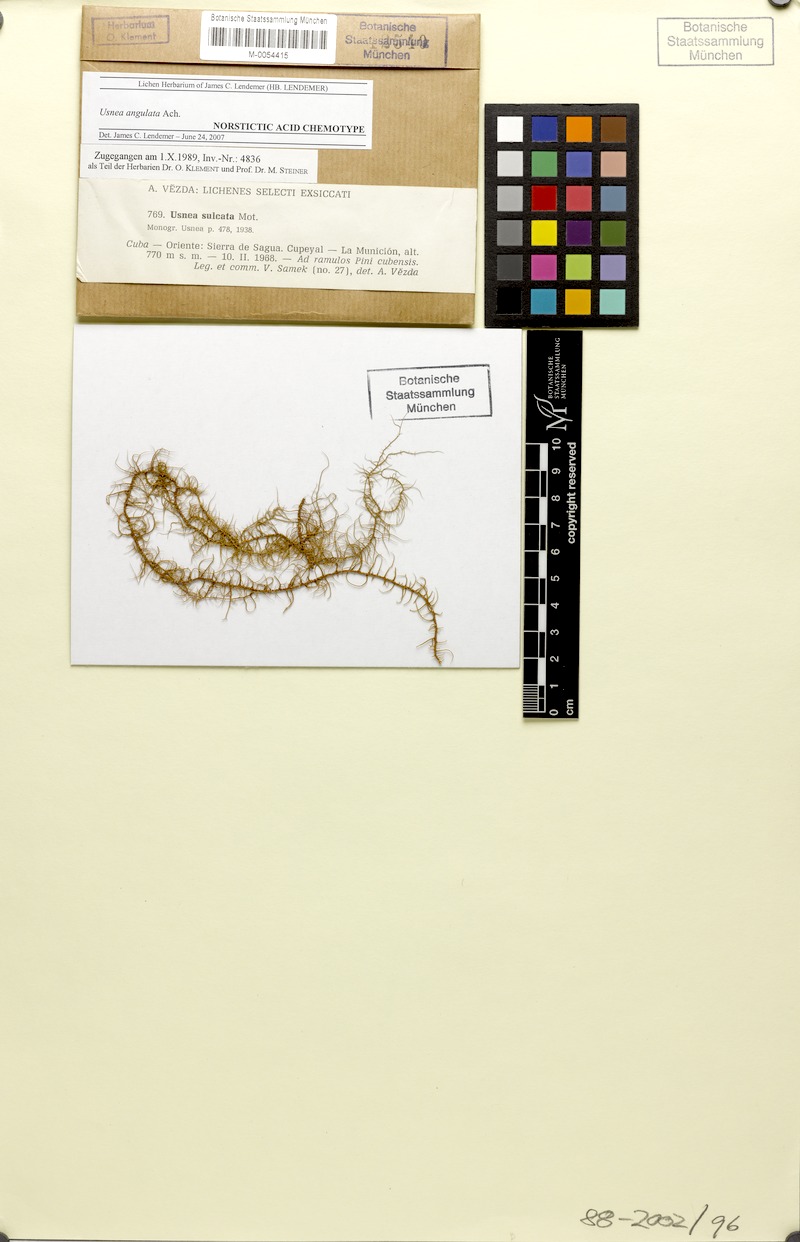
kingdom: Fungi
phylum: Ascomycota
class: Lecanoromycetes
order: Lecanorales
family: Parmeliaceae
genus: Usnea
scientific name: Usnea angulata
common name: Old-man’s beard lichen
